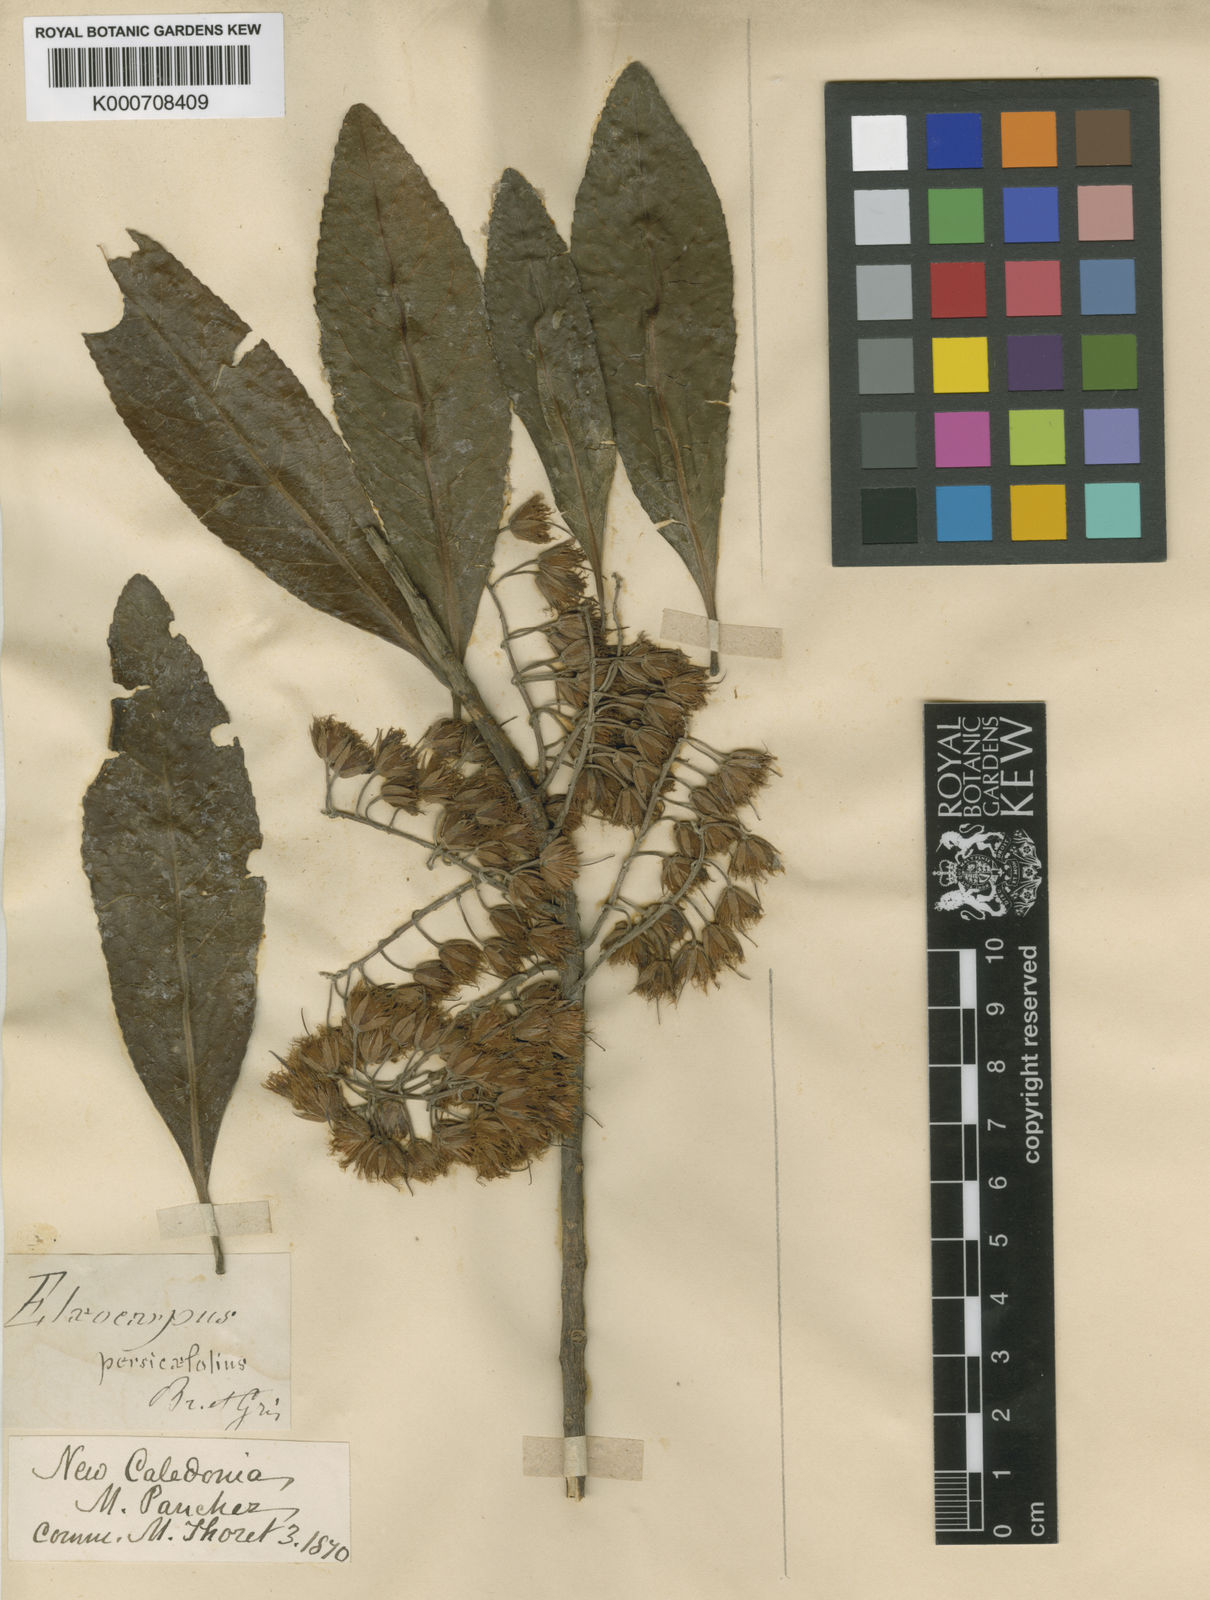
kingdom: Plantae
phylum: Tracheophyta
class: Magnoliopsida
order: Oxalidales
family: Elaeocarpaceae
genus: Elaeocarpus
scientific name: Elaeocarpus angustifolius
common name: Blue marble tree
